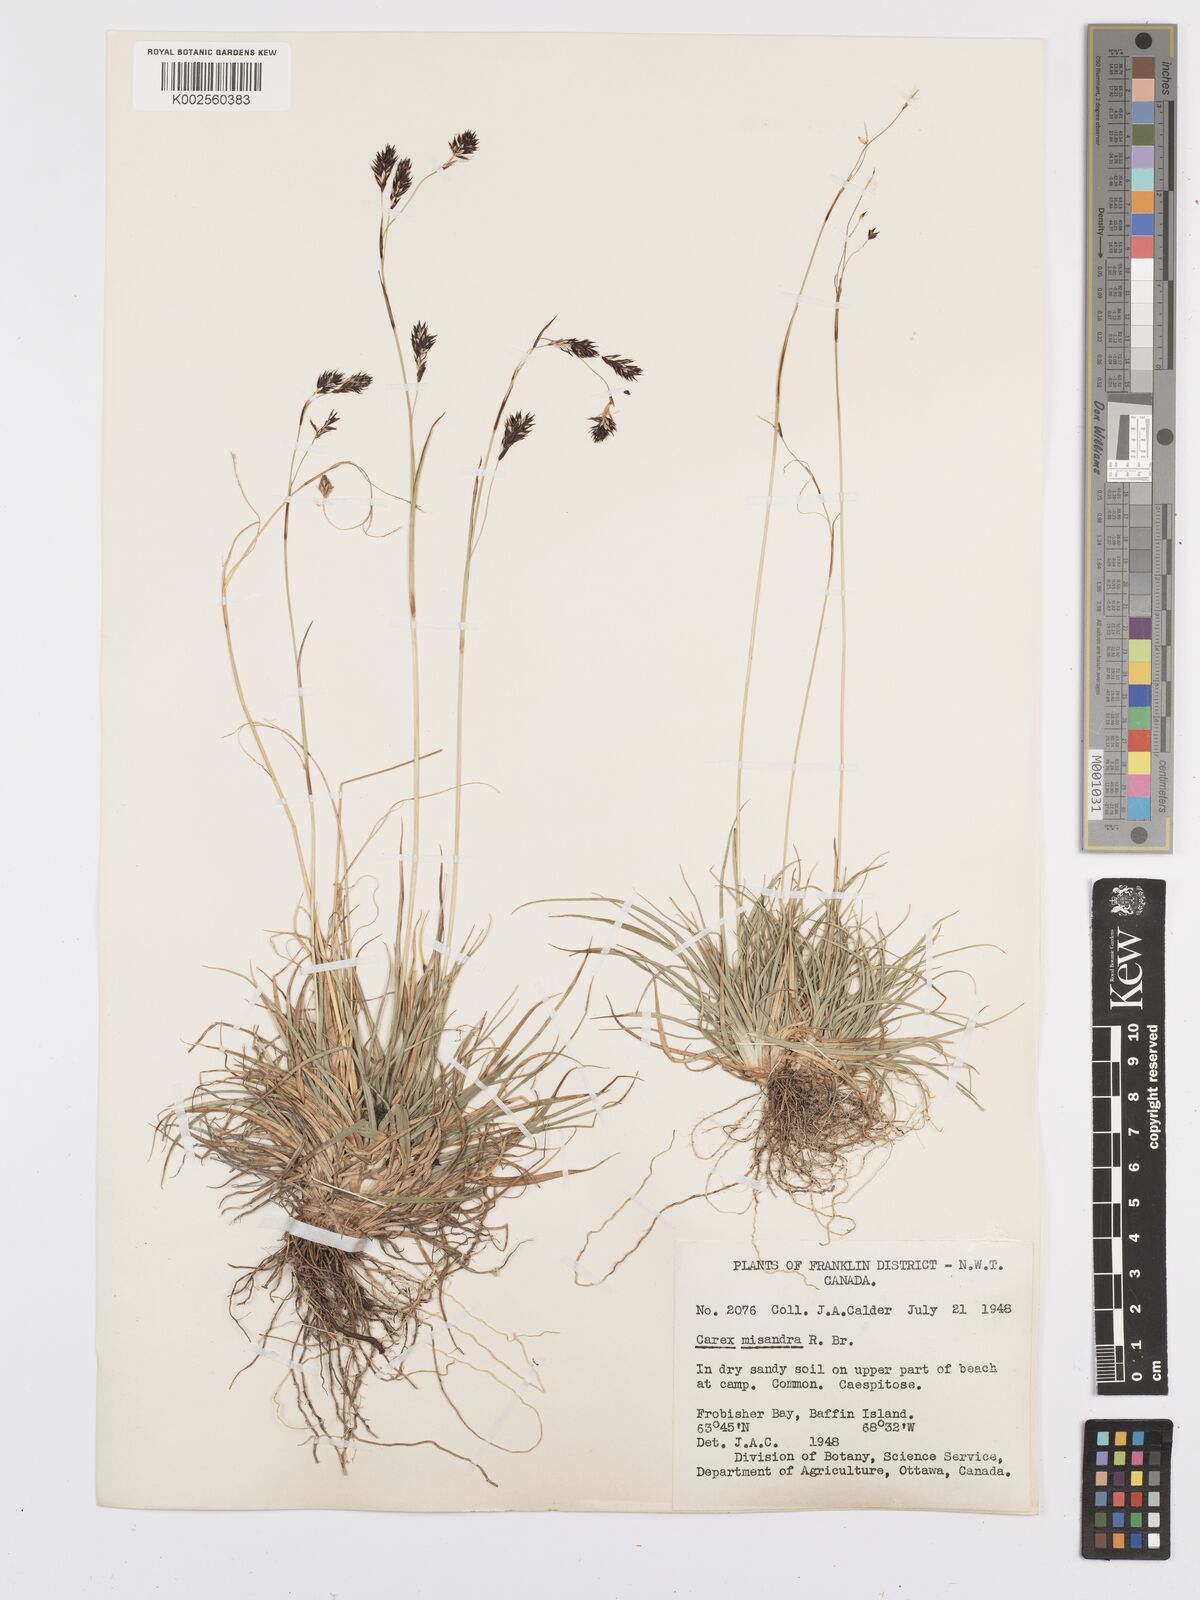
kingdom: Plantae
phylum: Tracheophyta
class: Liliopsida
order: Poales
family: Cyperaceae
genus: Carex
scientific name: Carex fuliginosa
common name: Few-flowered sedge
